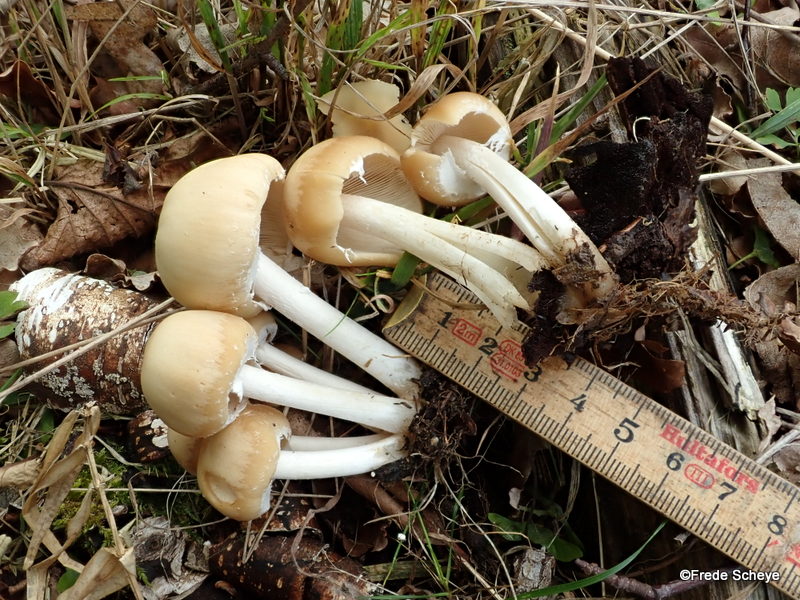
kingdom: Fungi
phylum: Basidiomycota
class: Agaricomycetes
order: Agaricales
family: Psathyrellaceae
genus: Candolleomyces
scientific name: Candolleomyces candolleanus
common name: Candolles mørkhat
